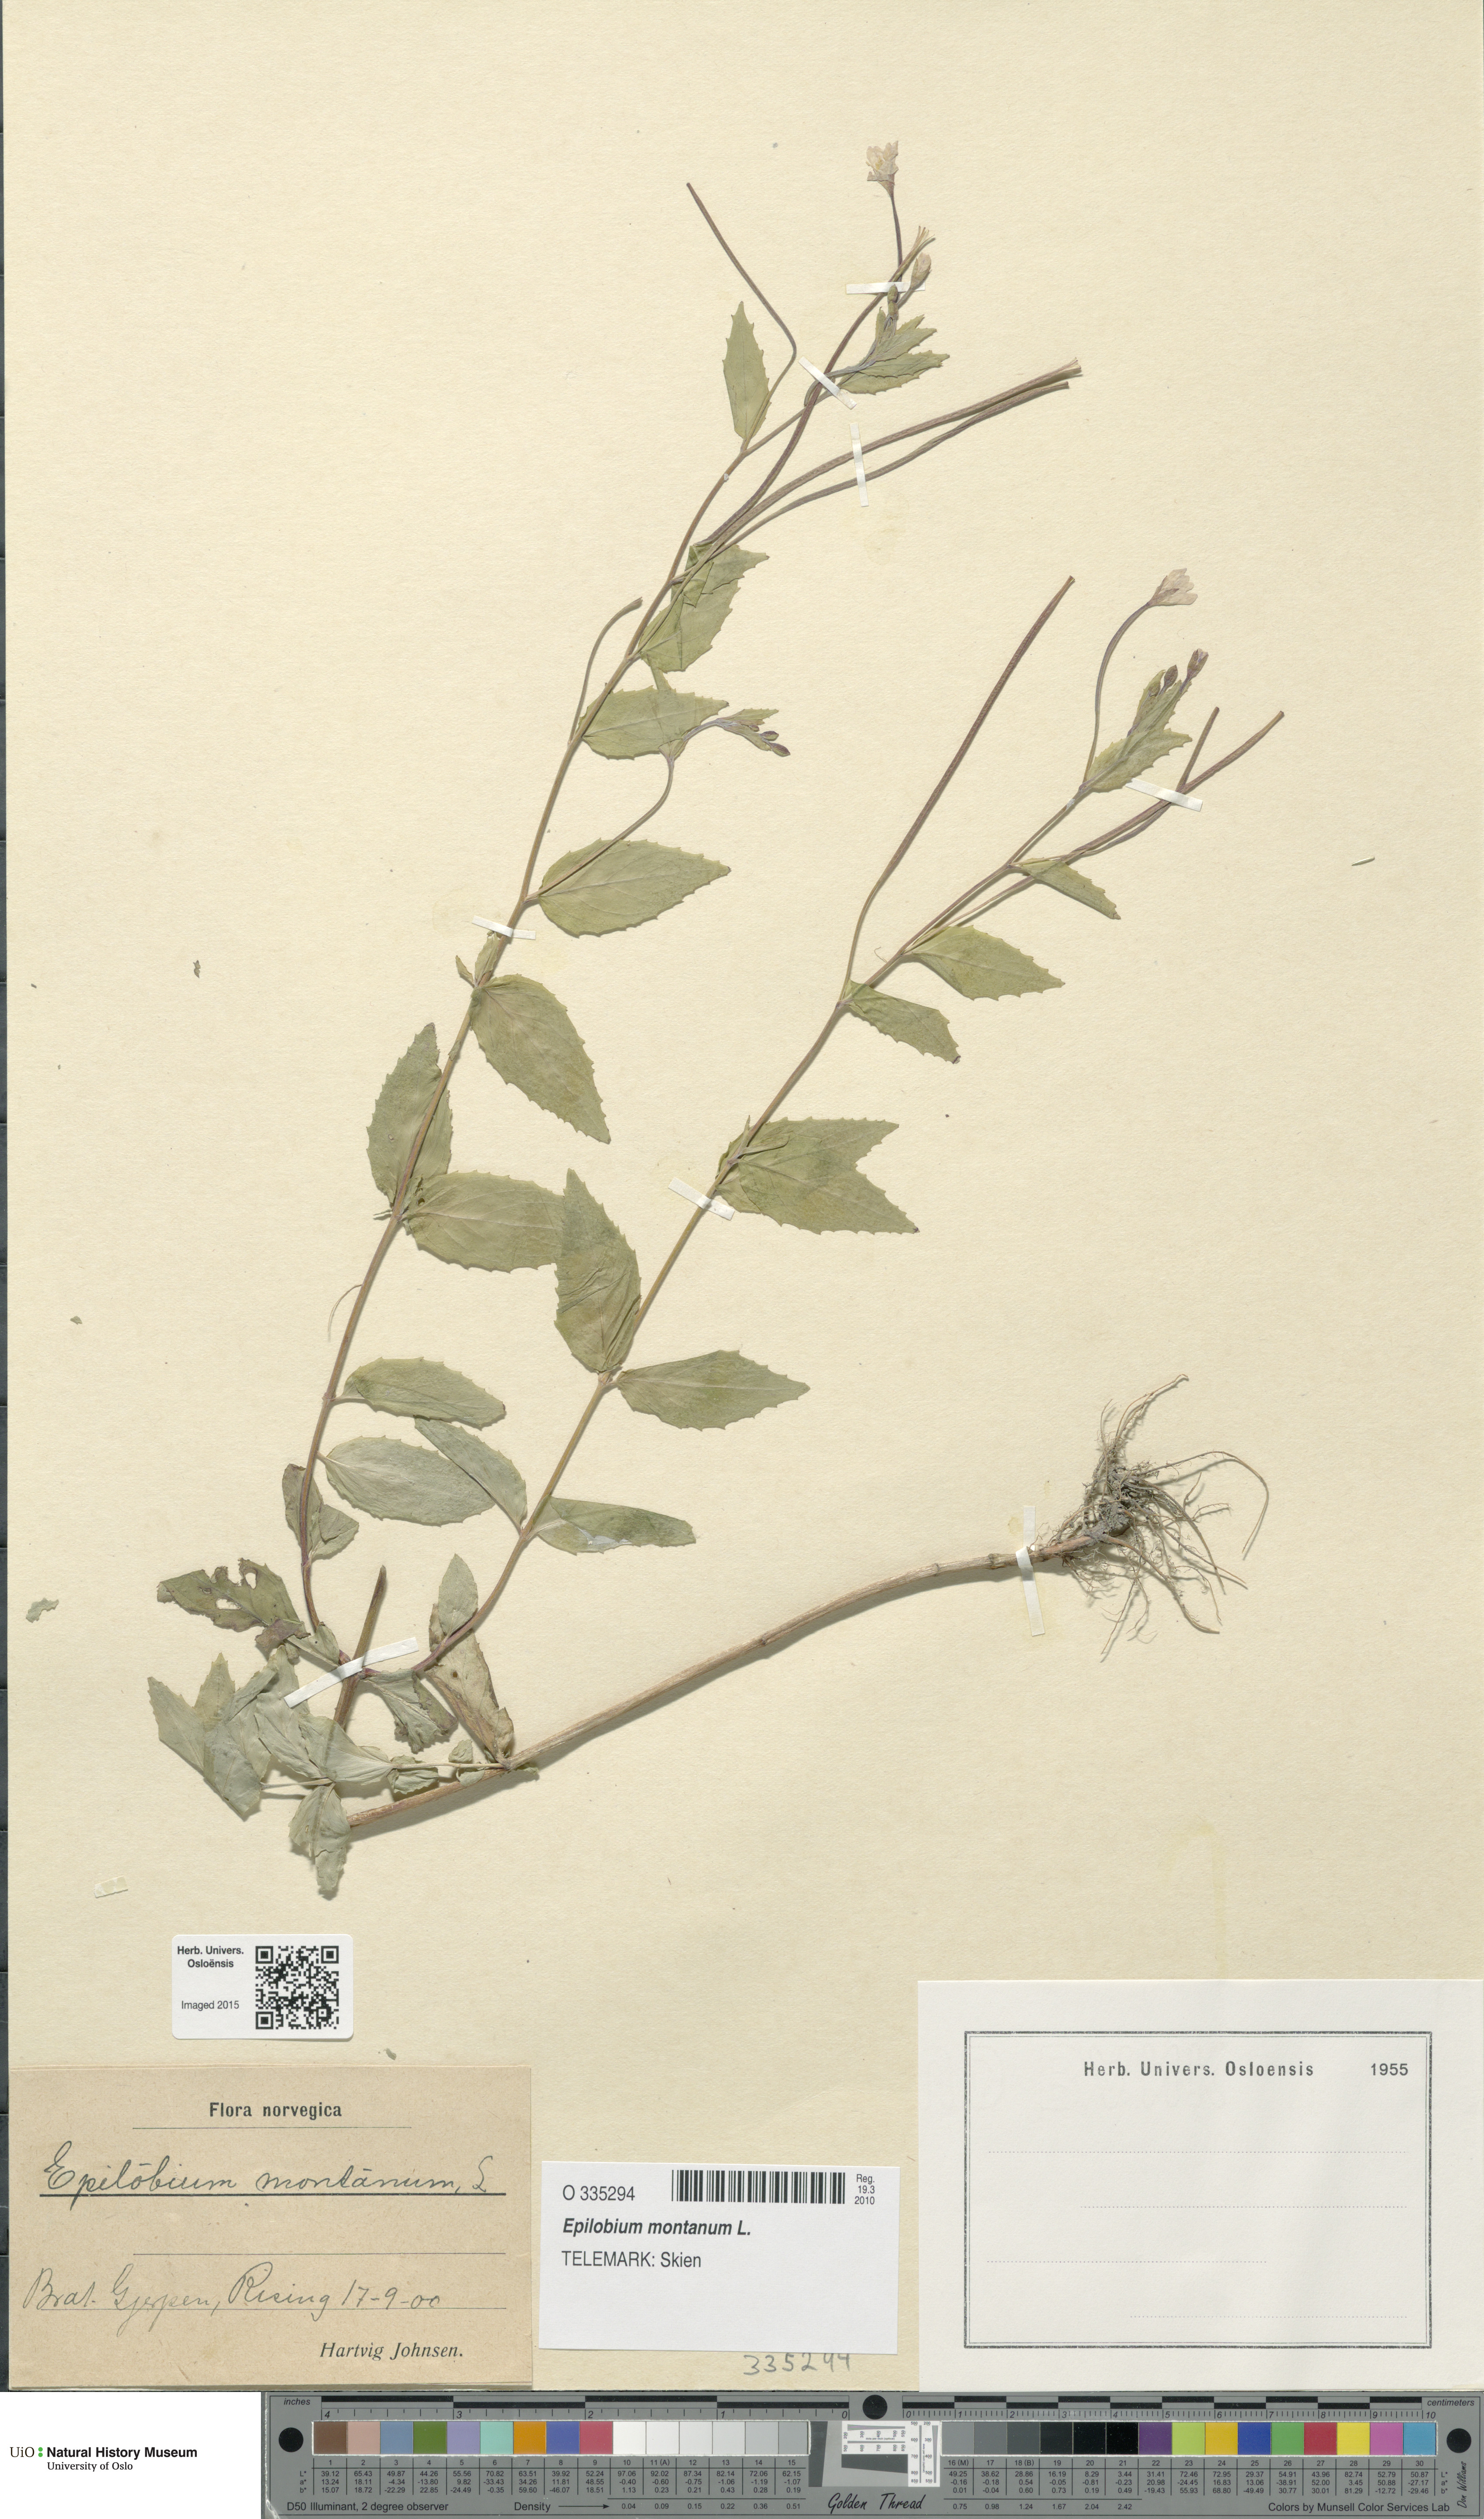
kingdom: Plantae
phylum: Tracheophyta
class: Magnoliopsida
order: Myrtales
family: Onagraceae
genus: Epilobium
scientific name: Epilobium montanum
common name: Broad-leaved willowherb
